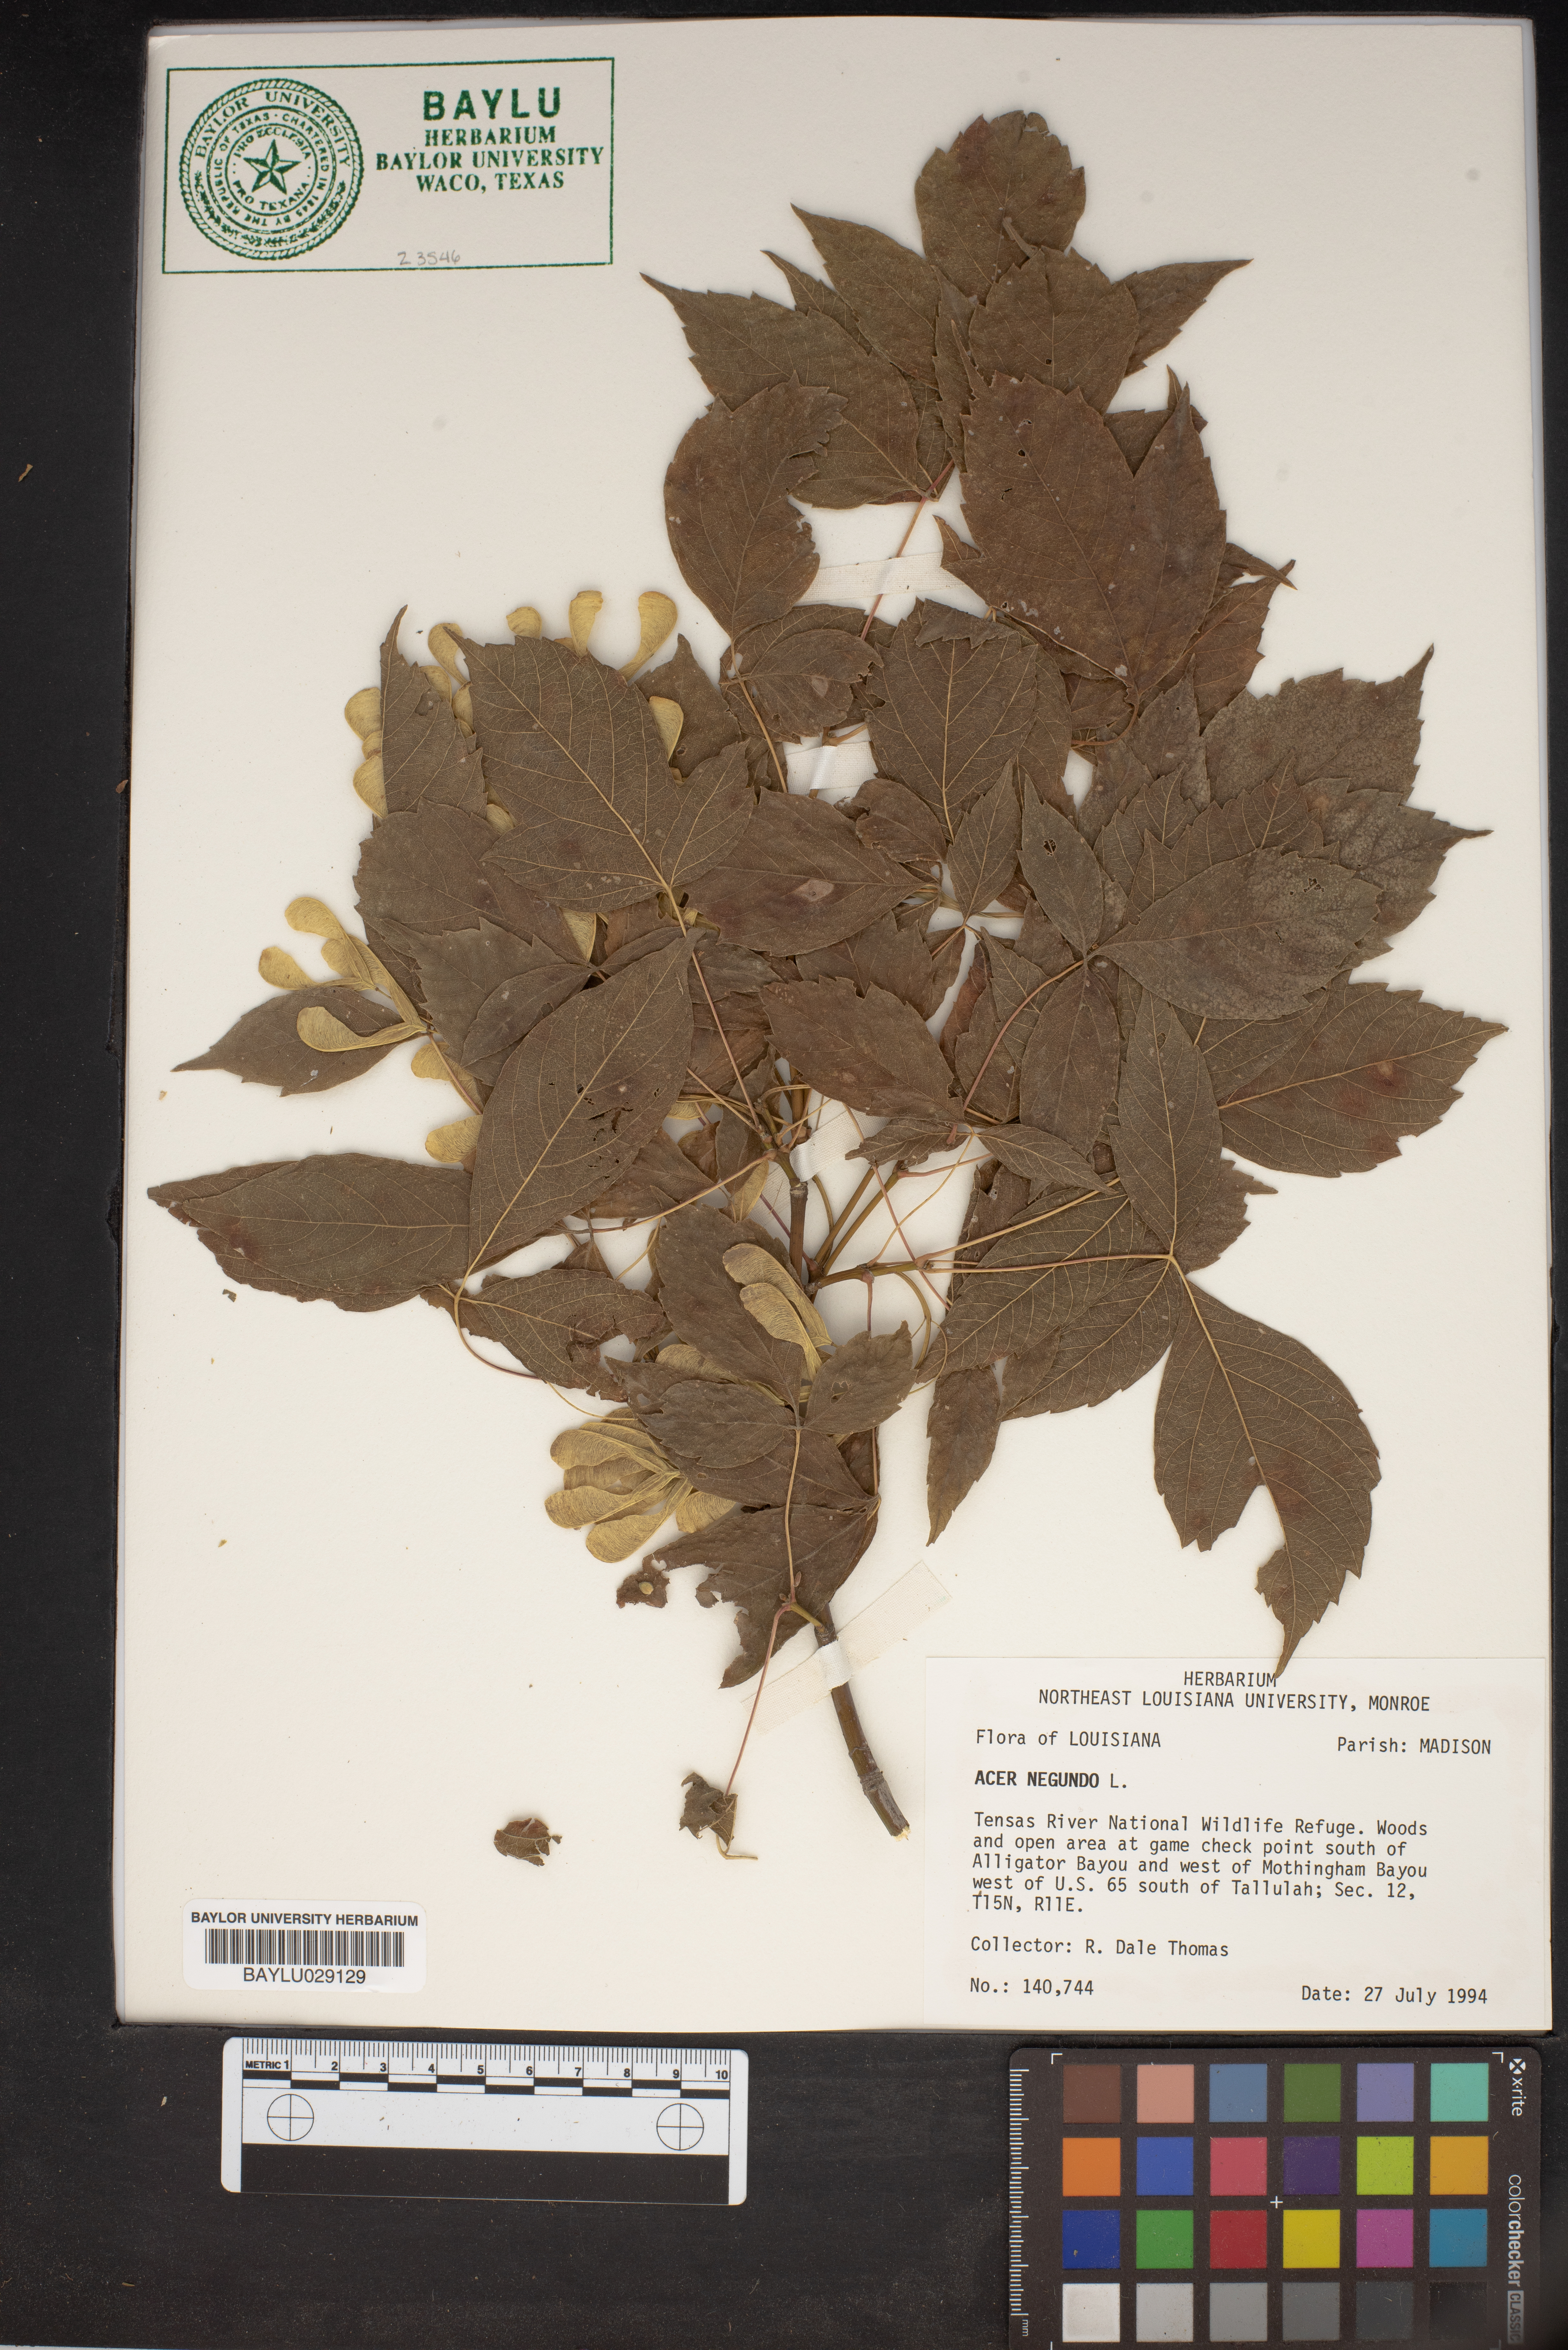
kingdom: Plantae
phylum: Tracheophyta
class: Magnoliopsida
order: Sapindales
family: Sapindaceae
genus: Acer
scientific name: Acer negundo
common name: Ashleaf maple
